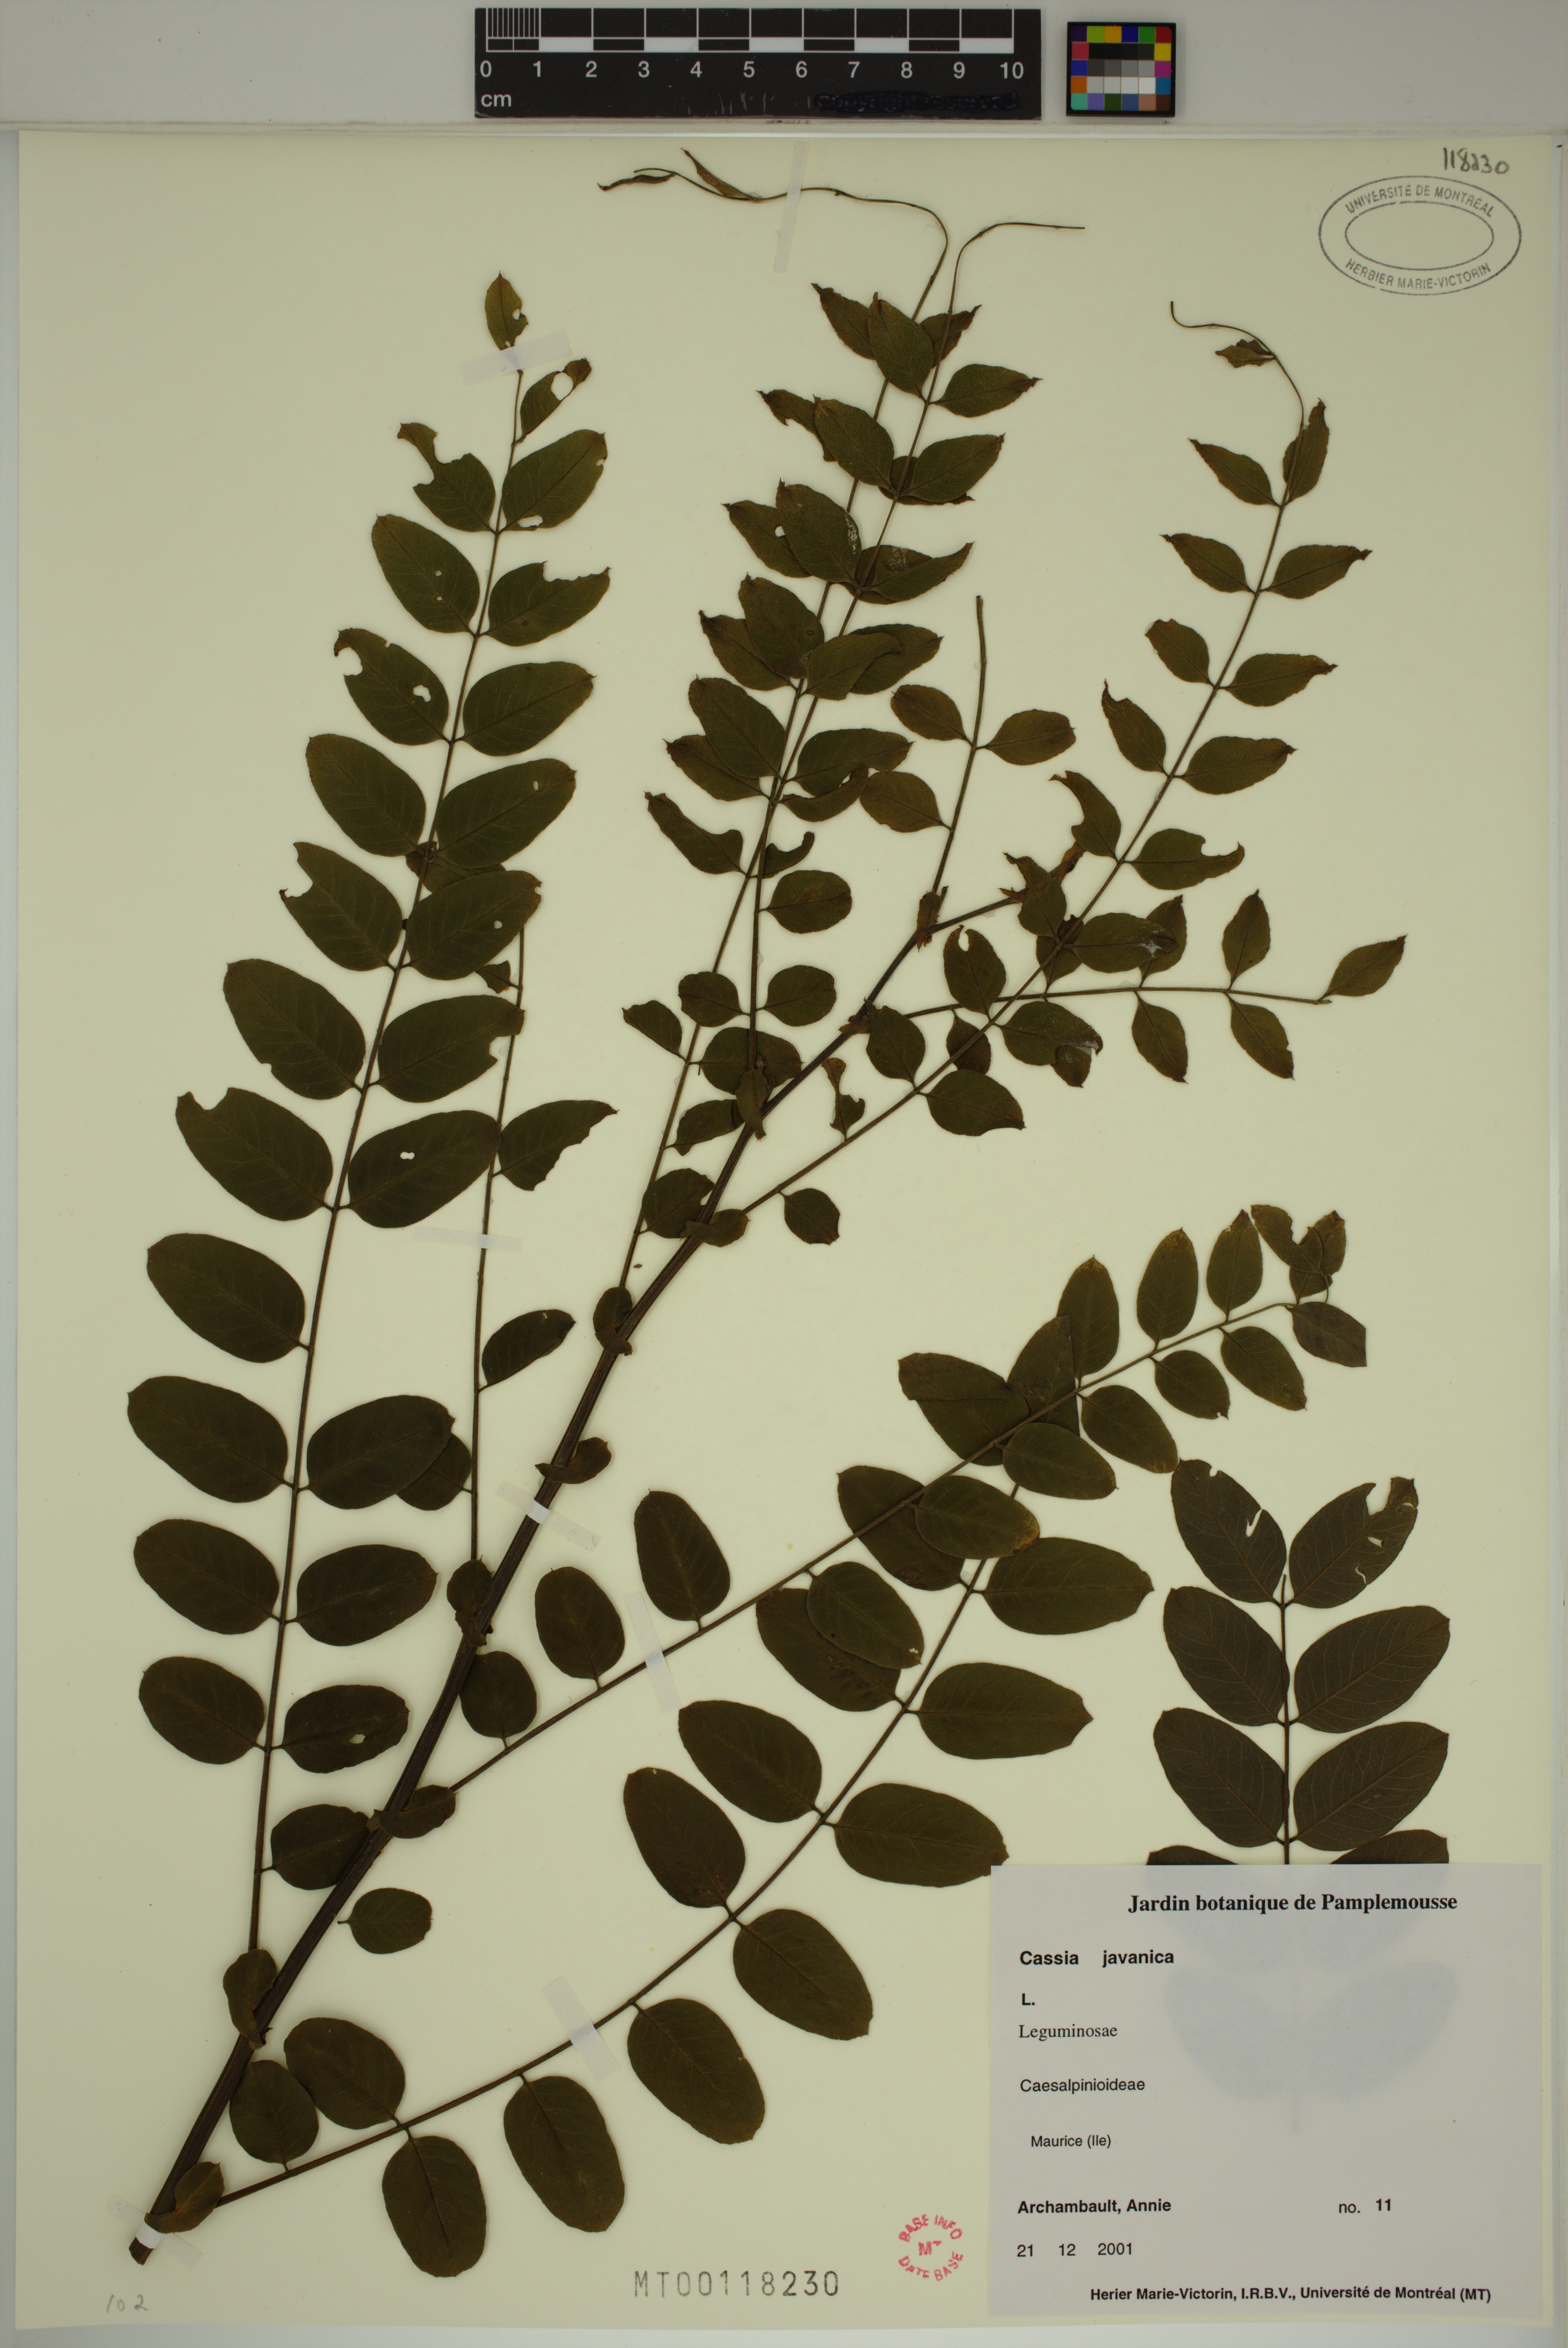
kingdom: Plantae
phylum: Tracheophyta
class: Magnoliopsida
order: Fabales
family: Fabaceae
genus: Cassia
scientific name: Cassia javanica
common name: Apple blossom
